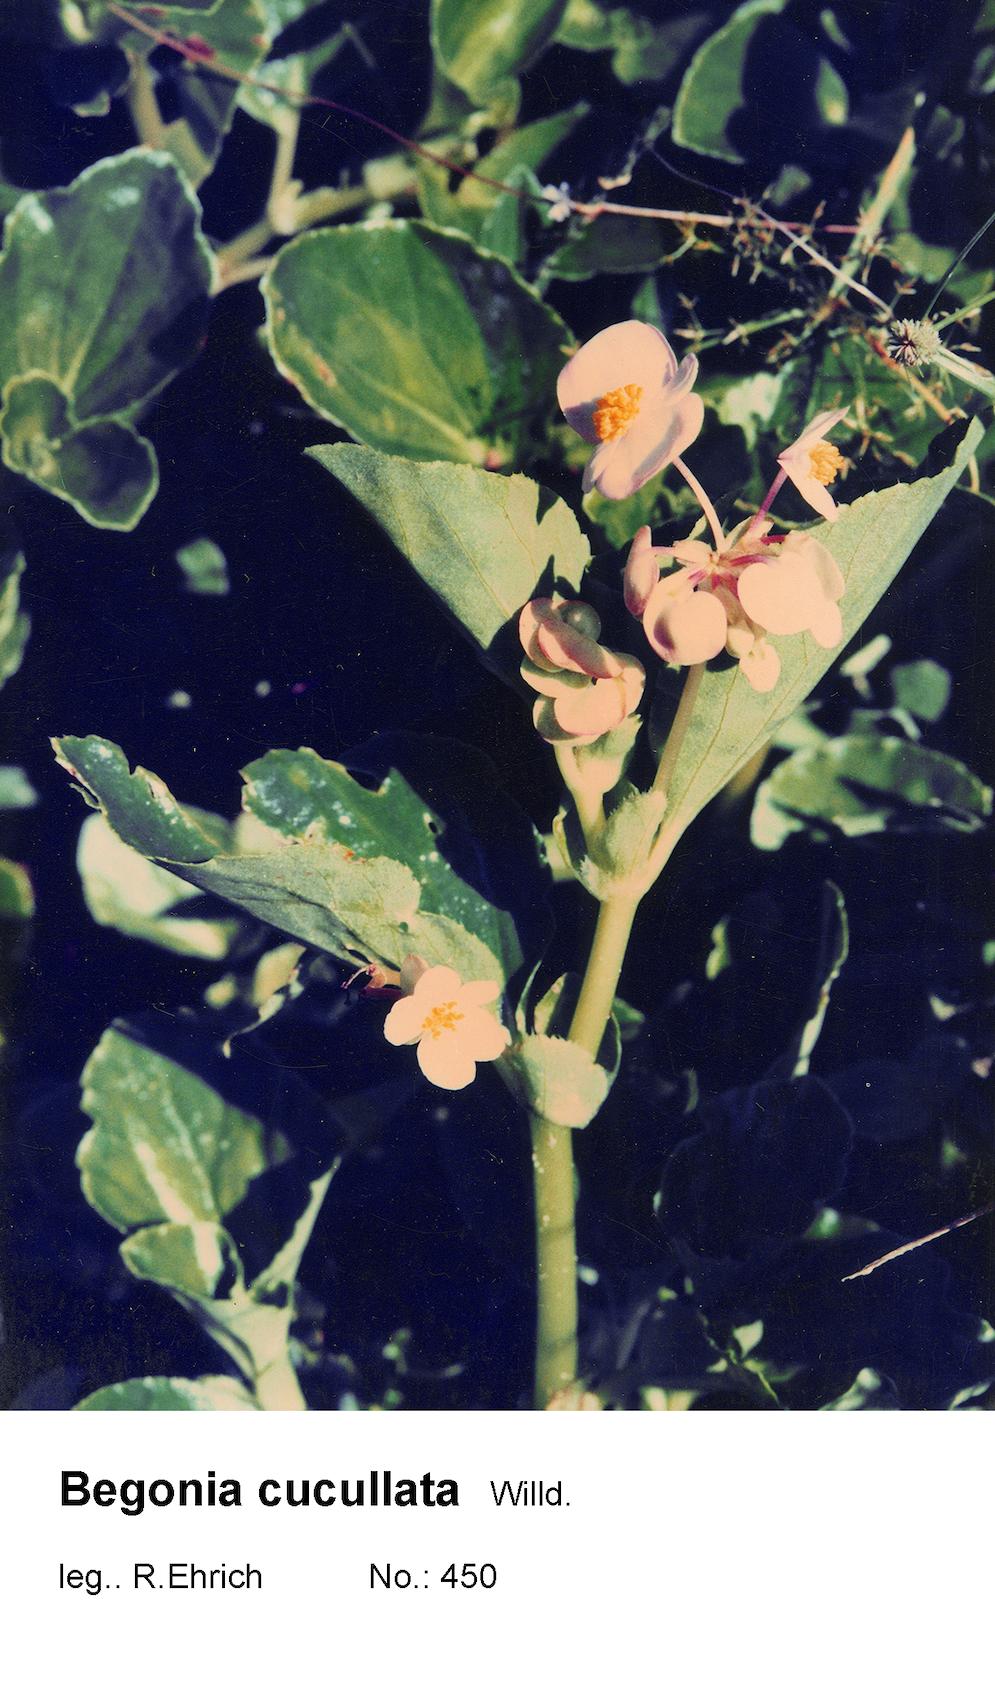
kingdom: Plantae
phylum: Tracheophyta
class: Magnoliopsida
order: Cucurbitales
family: Begoniaceae
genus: Begonia
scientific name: Begonia cucullata
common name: Clubbed begonia
